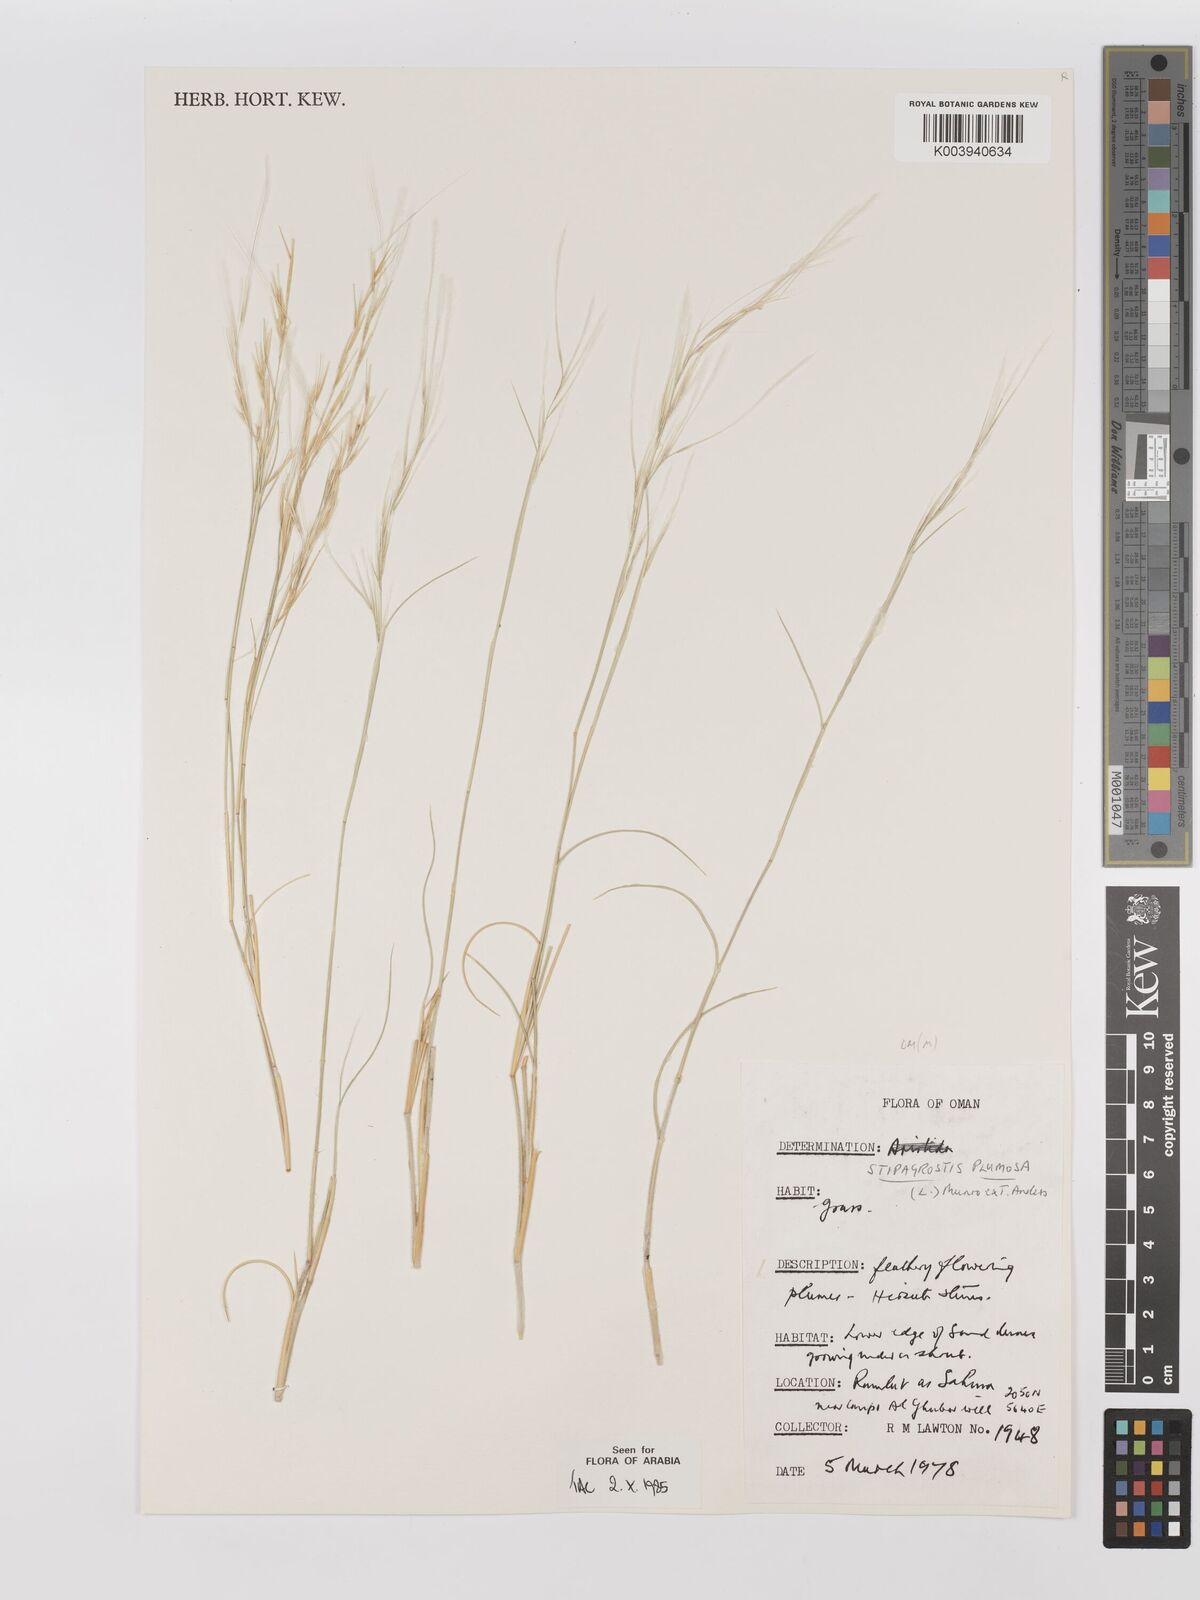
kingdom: Plantae
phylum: Tracheophyta
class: Liliopsida
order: Poales
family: Poaceae
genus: Stipagrostis
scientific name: Stipagrostis plumosa
